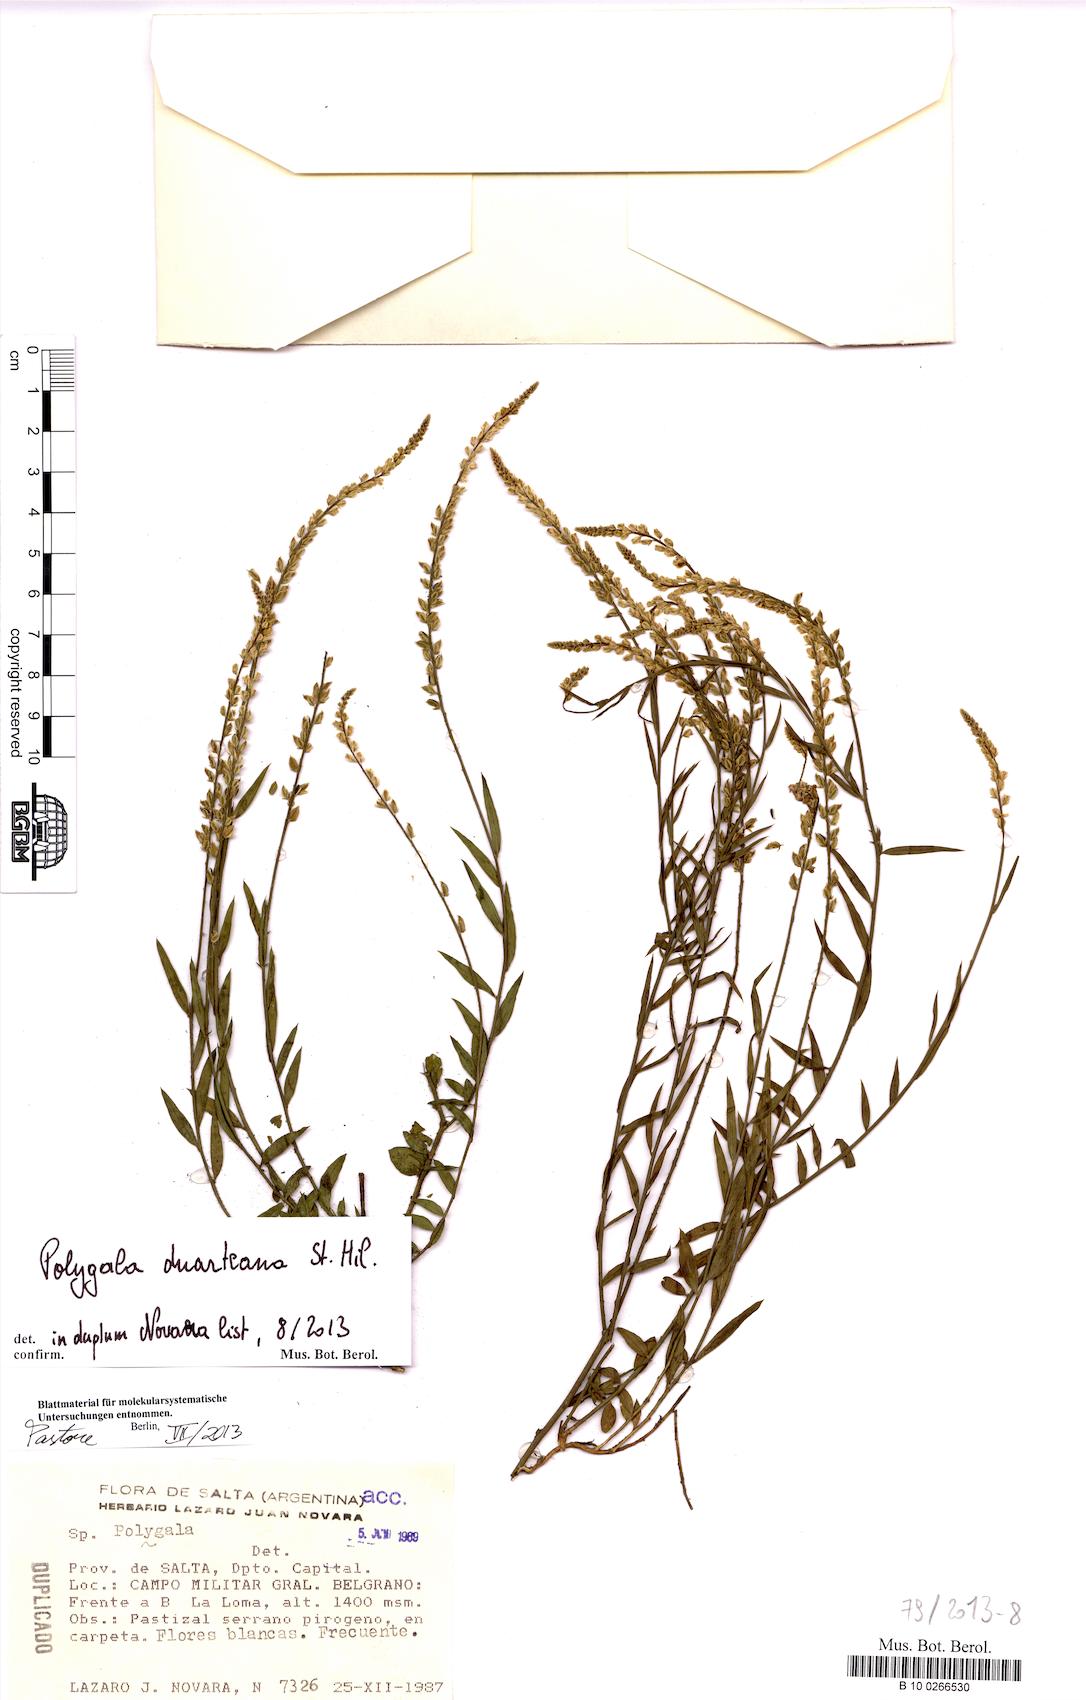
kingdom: Plantae
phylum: Tracheophyta
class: Magnoliopsida
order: Fabales
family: Polygalaceae
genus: Polygala
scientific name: Polygala duarteana
